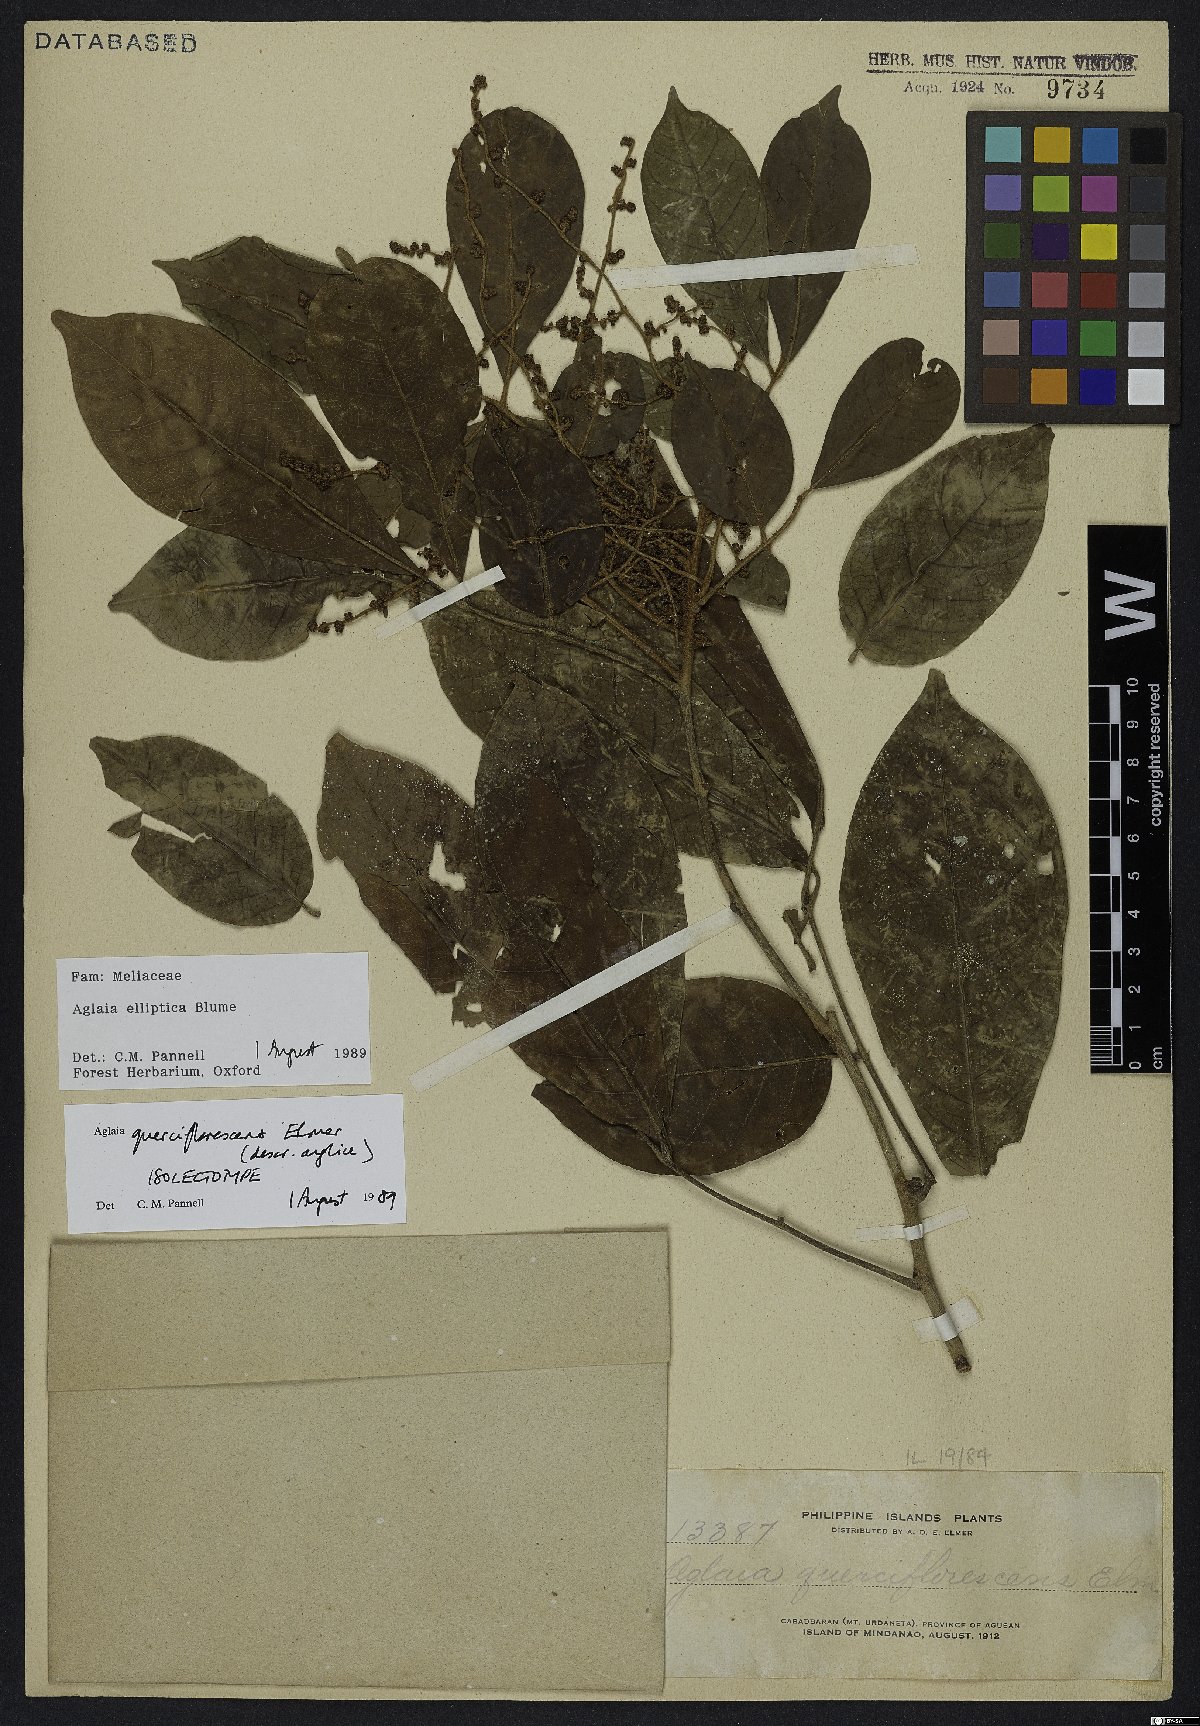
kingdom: Plantae
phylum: Tracheophyta
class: Magnoliopsida
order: Sapindales
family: Meliaceae
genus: Aglaia
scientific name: Aglaia elliptica
